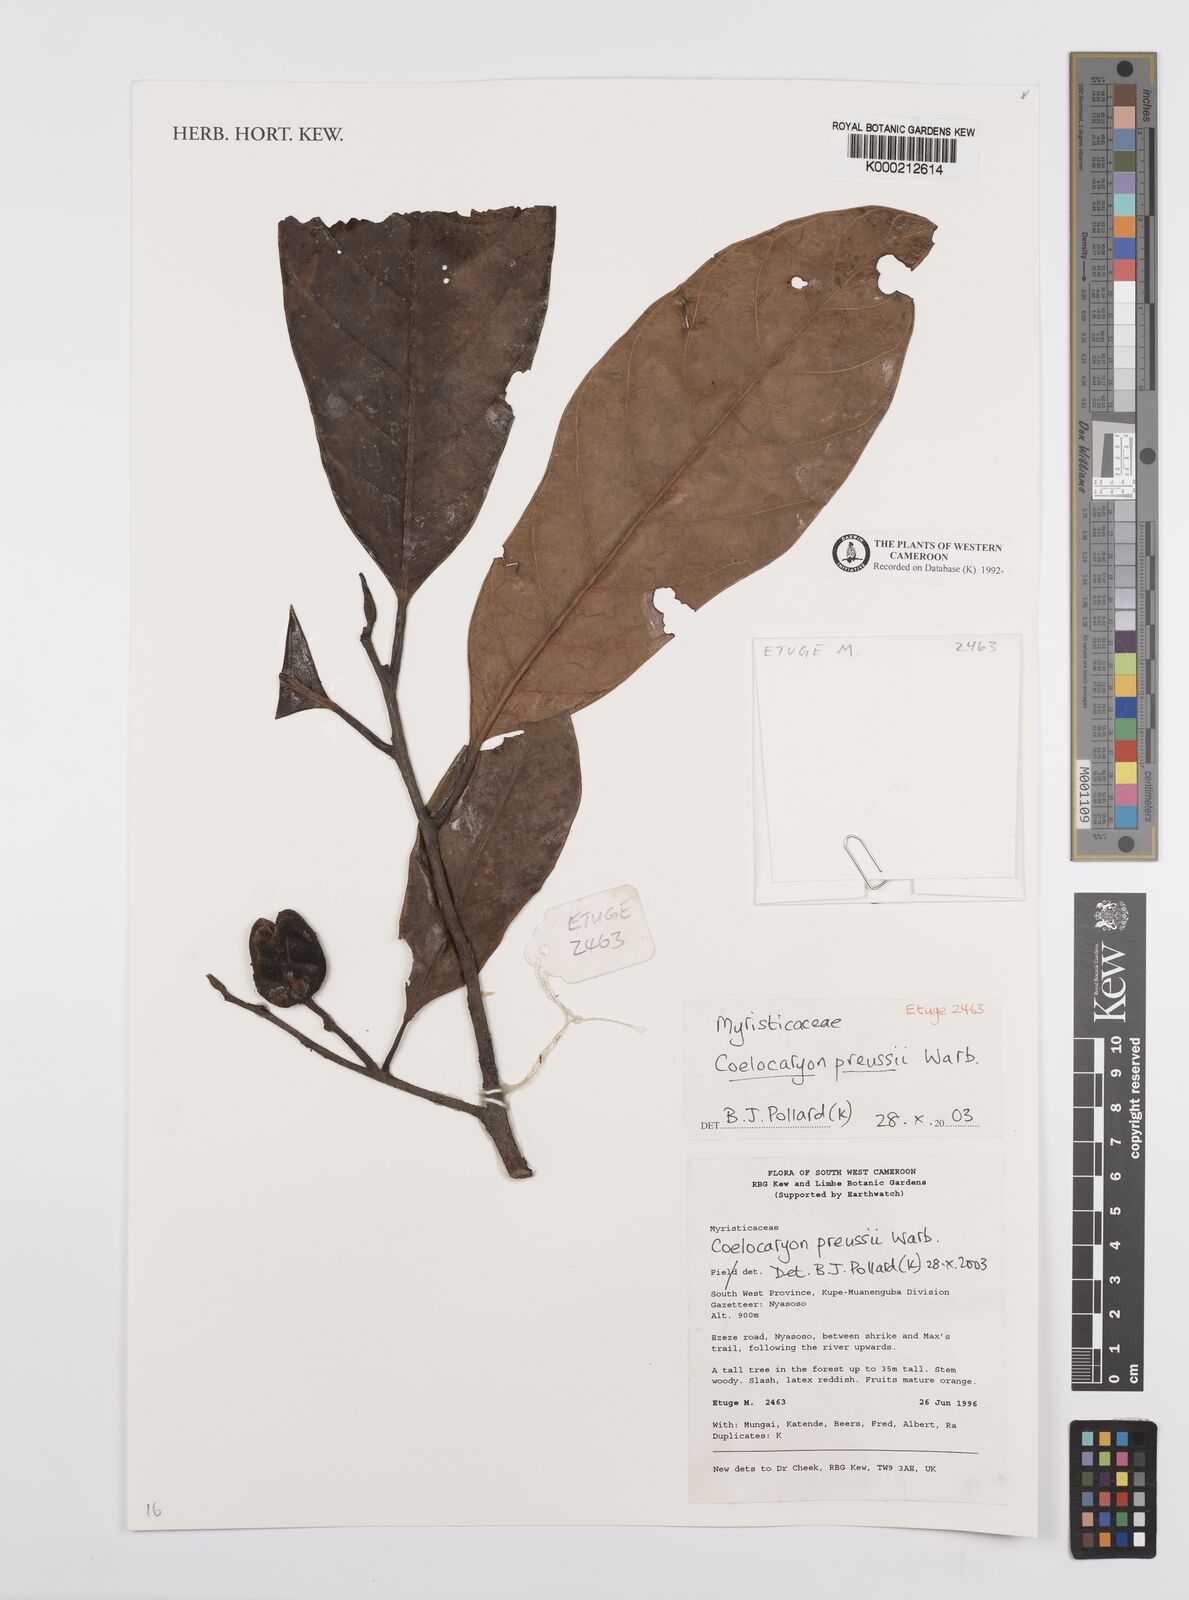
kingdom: Plantae
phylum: Tracheophyta
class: Magnoliopsida
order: Magnoliales
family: Myristicaceae
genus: Coelocaryon
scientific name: Coelocaryon preussii
